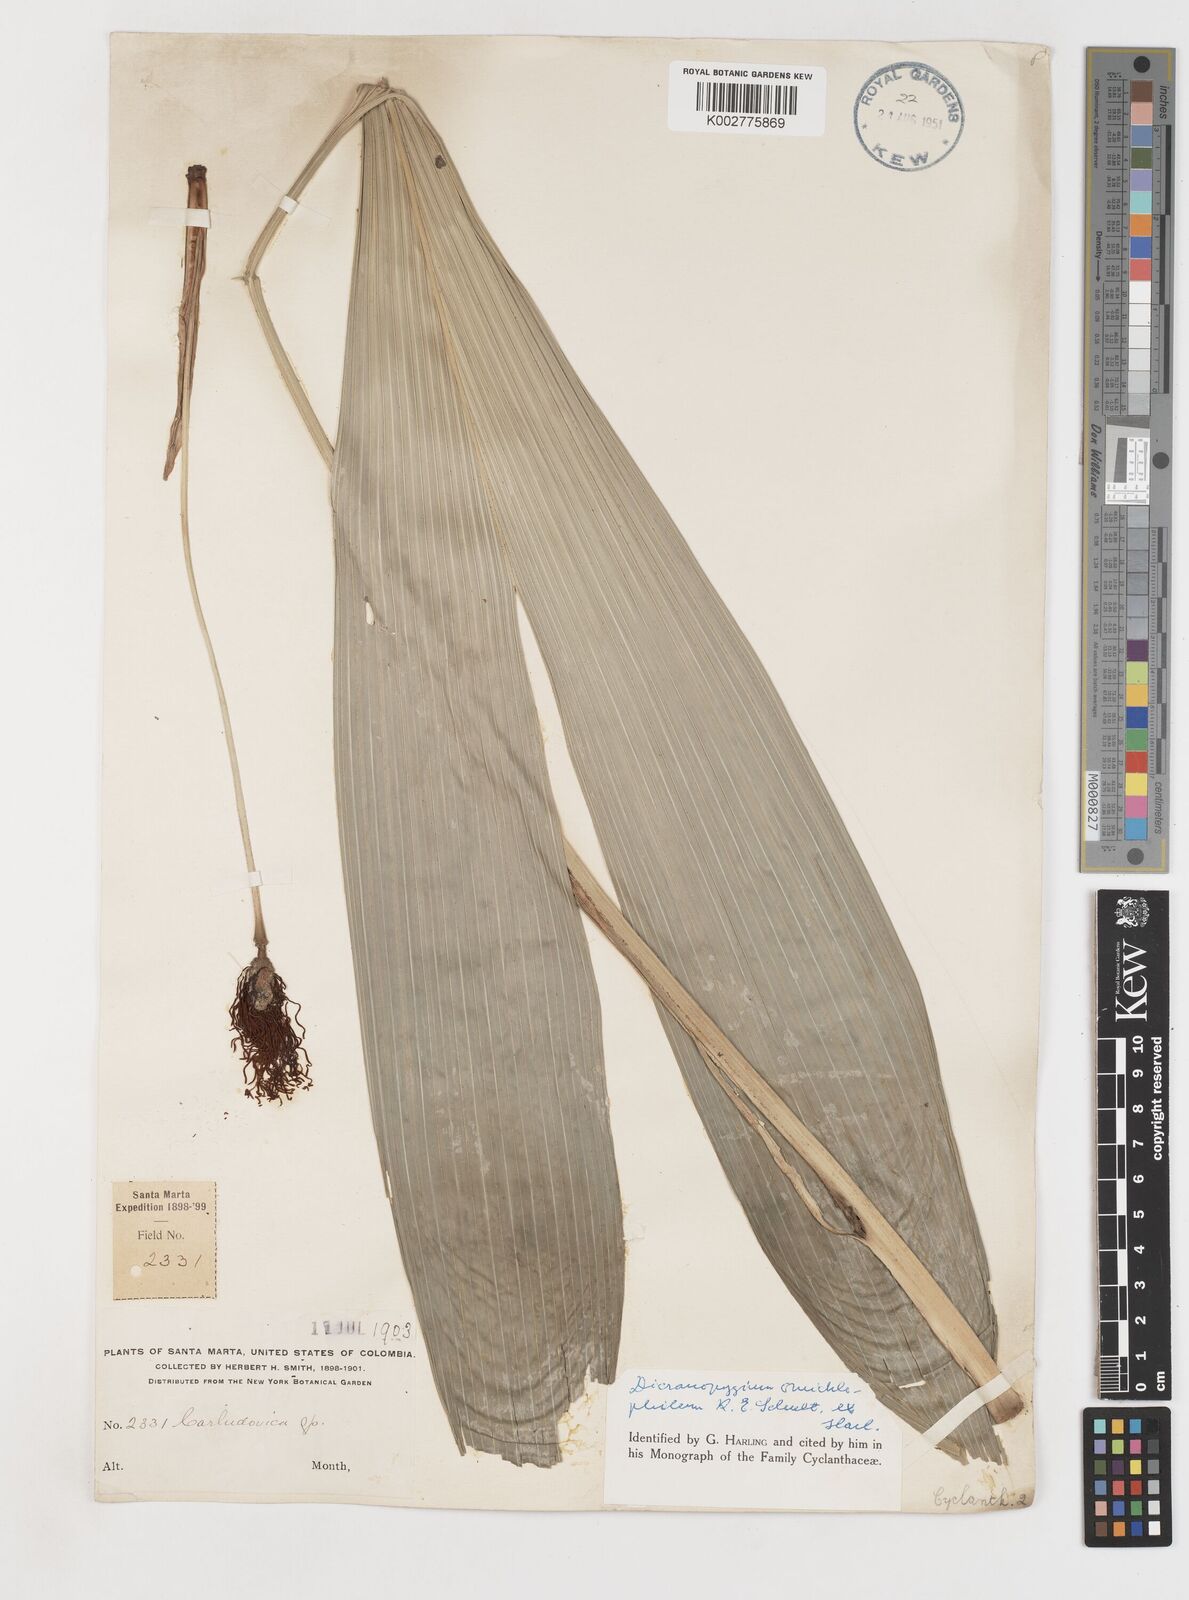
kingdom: Plantae
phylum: Tracheophyta
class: Liliopsida
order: Pandanales
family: Cyclanthaceae
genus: Dicranopygium
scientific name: Dicranopygium omichlophilum
